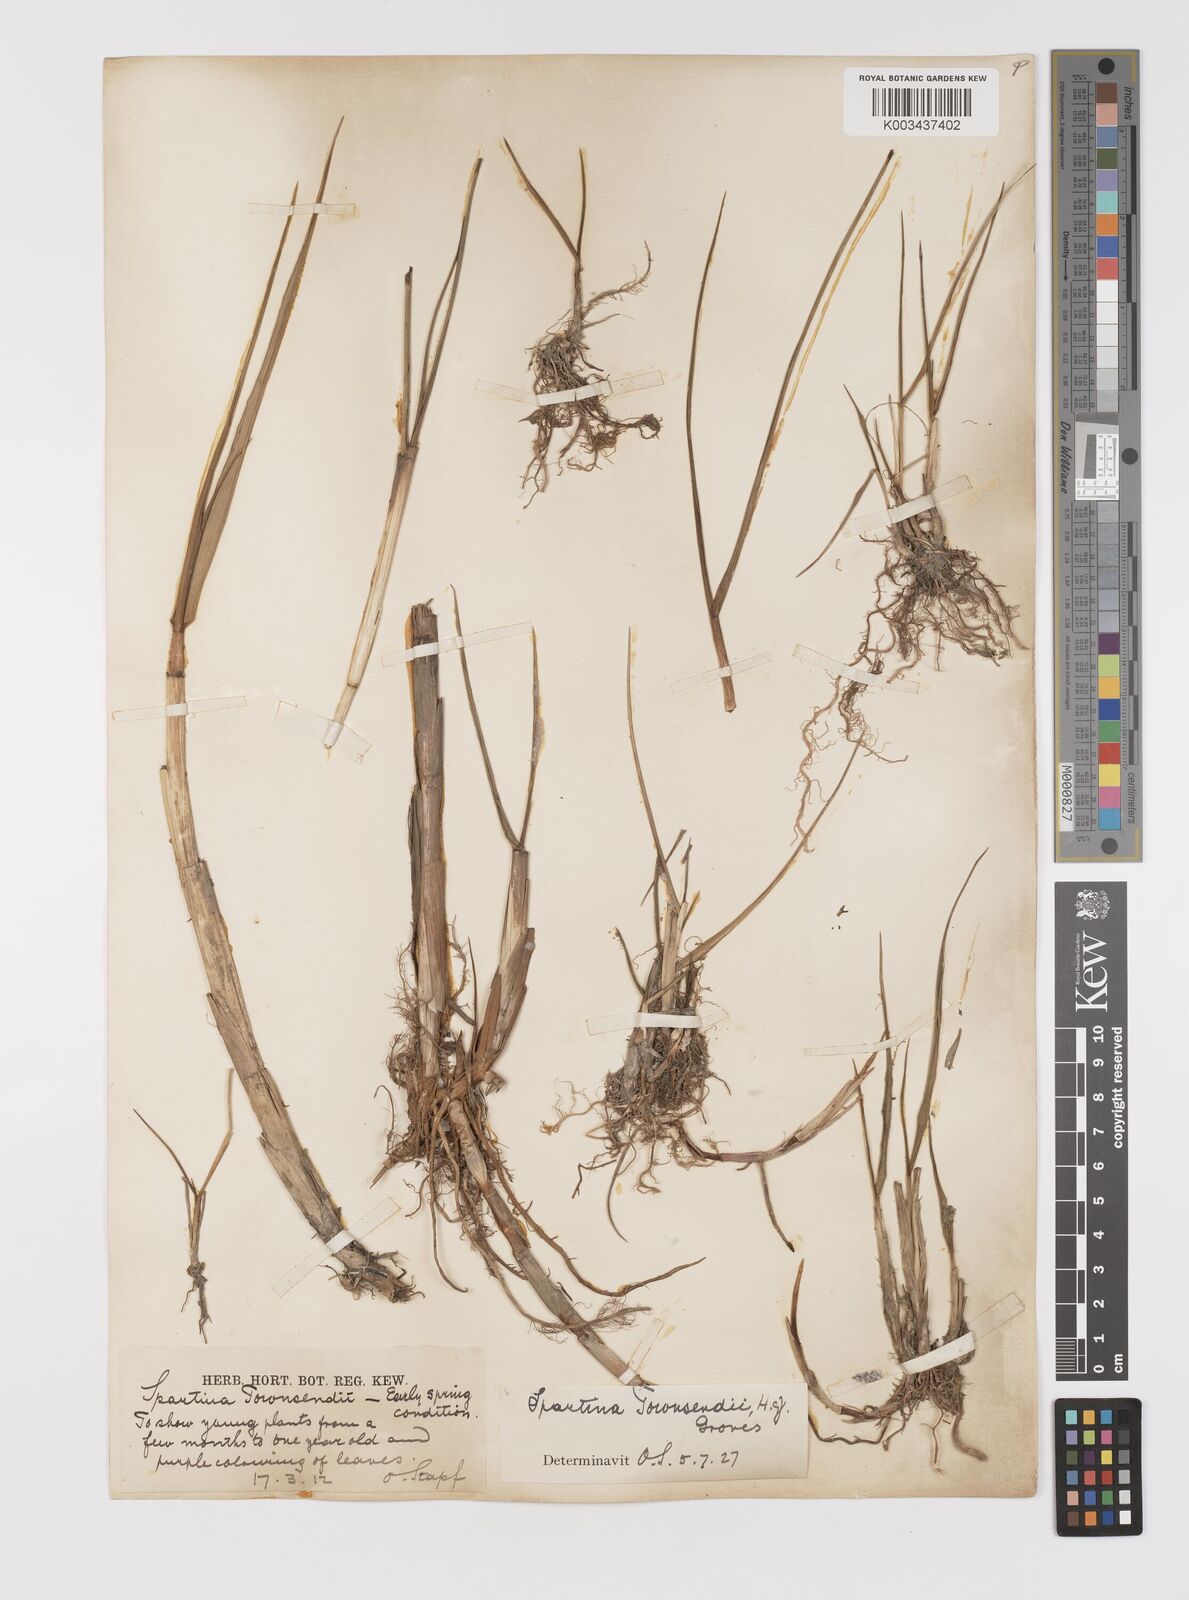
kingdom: Plantae
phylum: Tracheophyta
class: Liliopsida
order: Poales
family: Poaceae
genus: Sporobolus
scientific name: Sporobolus townsendii
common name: Townsend's cordgrass
